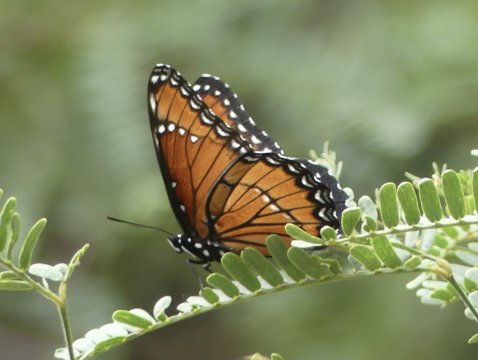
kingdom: Animalia
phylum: Arthropoda
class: Insecta
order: Lepidoptera
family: Nymphalidae
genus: Limenitis
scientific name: Limenitis archippus
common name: Viceroy
